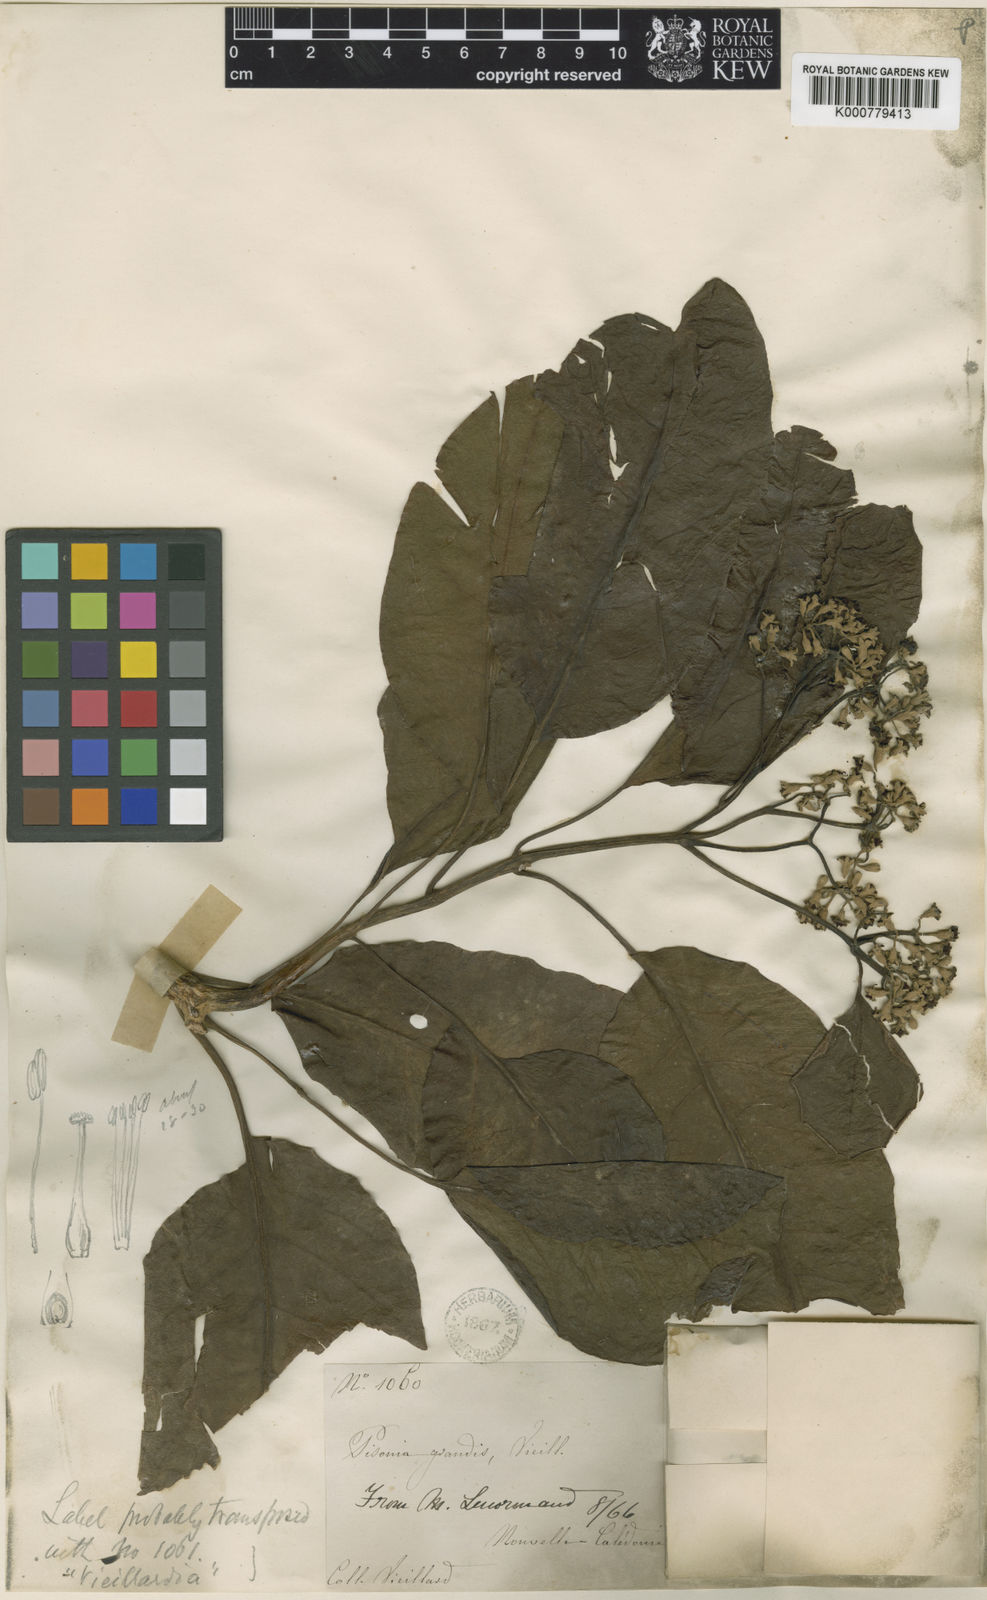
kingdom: Plantae
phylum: Tracheophyta
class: Magnoliopsida
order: Caryophyllales
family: Nyctaginaceae
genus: Ceodes
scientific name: Ceodes artensis
